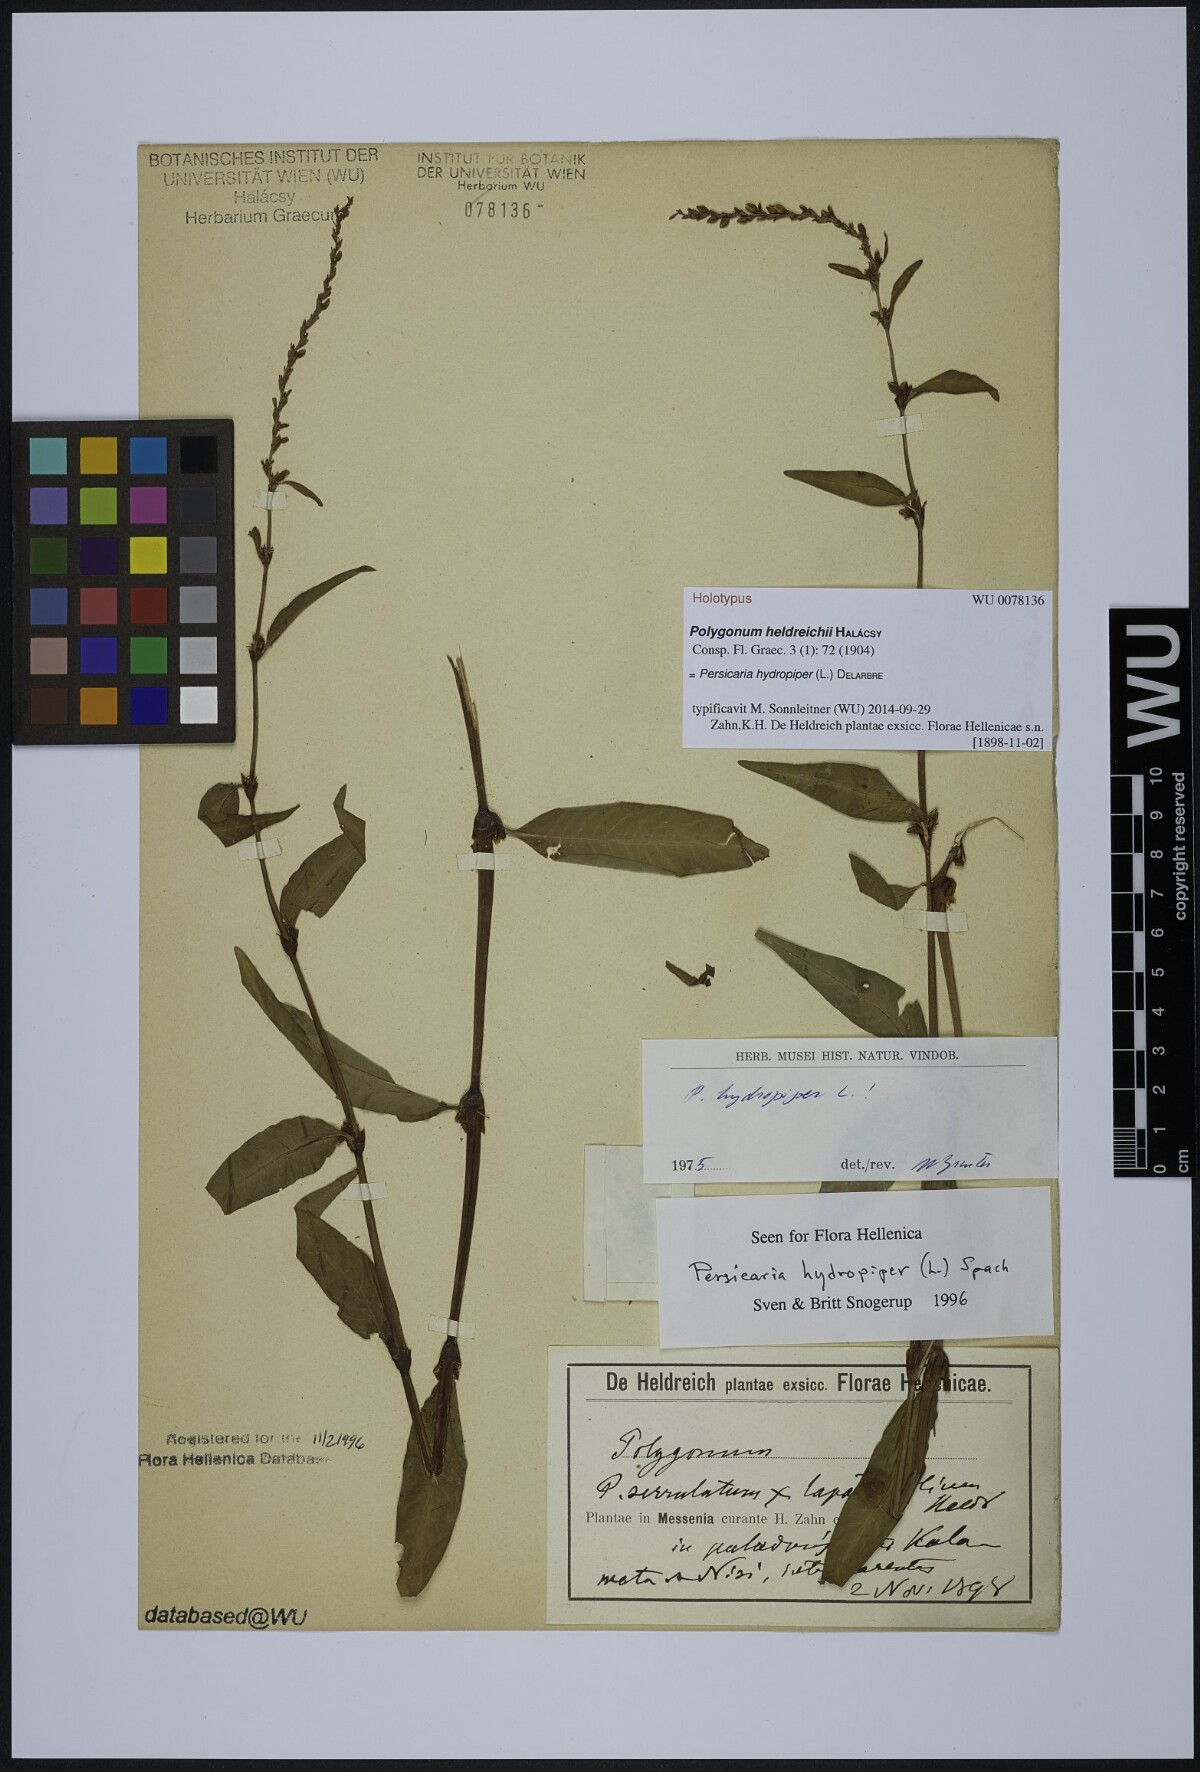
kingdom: Plantae
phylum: Tracheophyta
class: Magnoliopsida
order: Caryophyllales
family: Polygonaceae
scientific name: Polygonaceae
